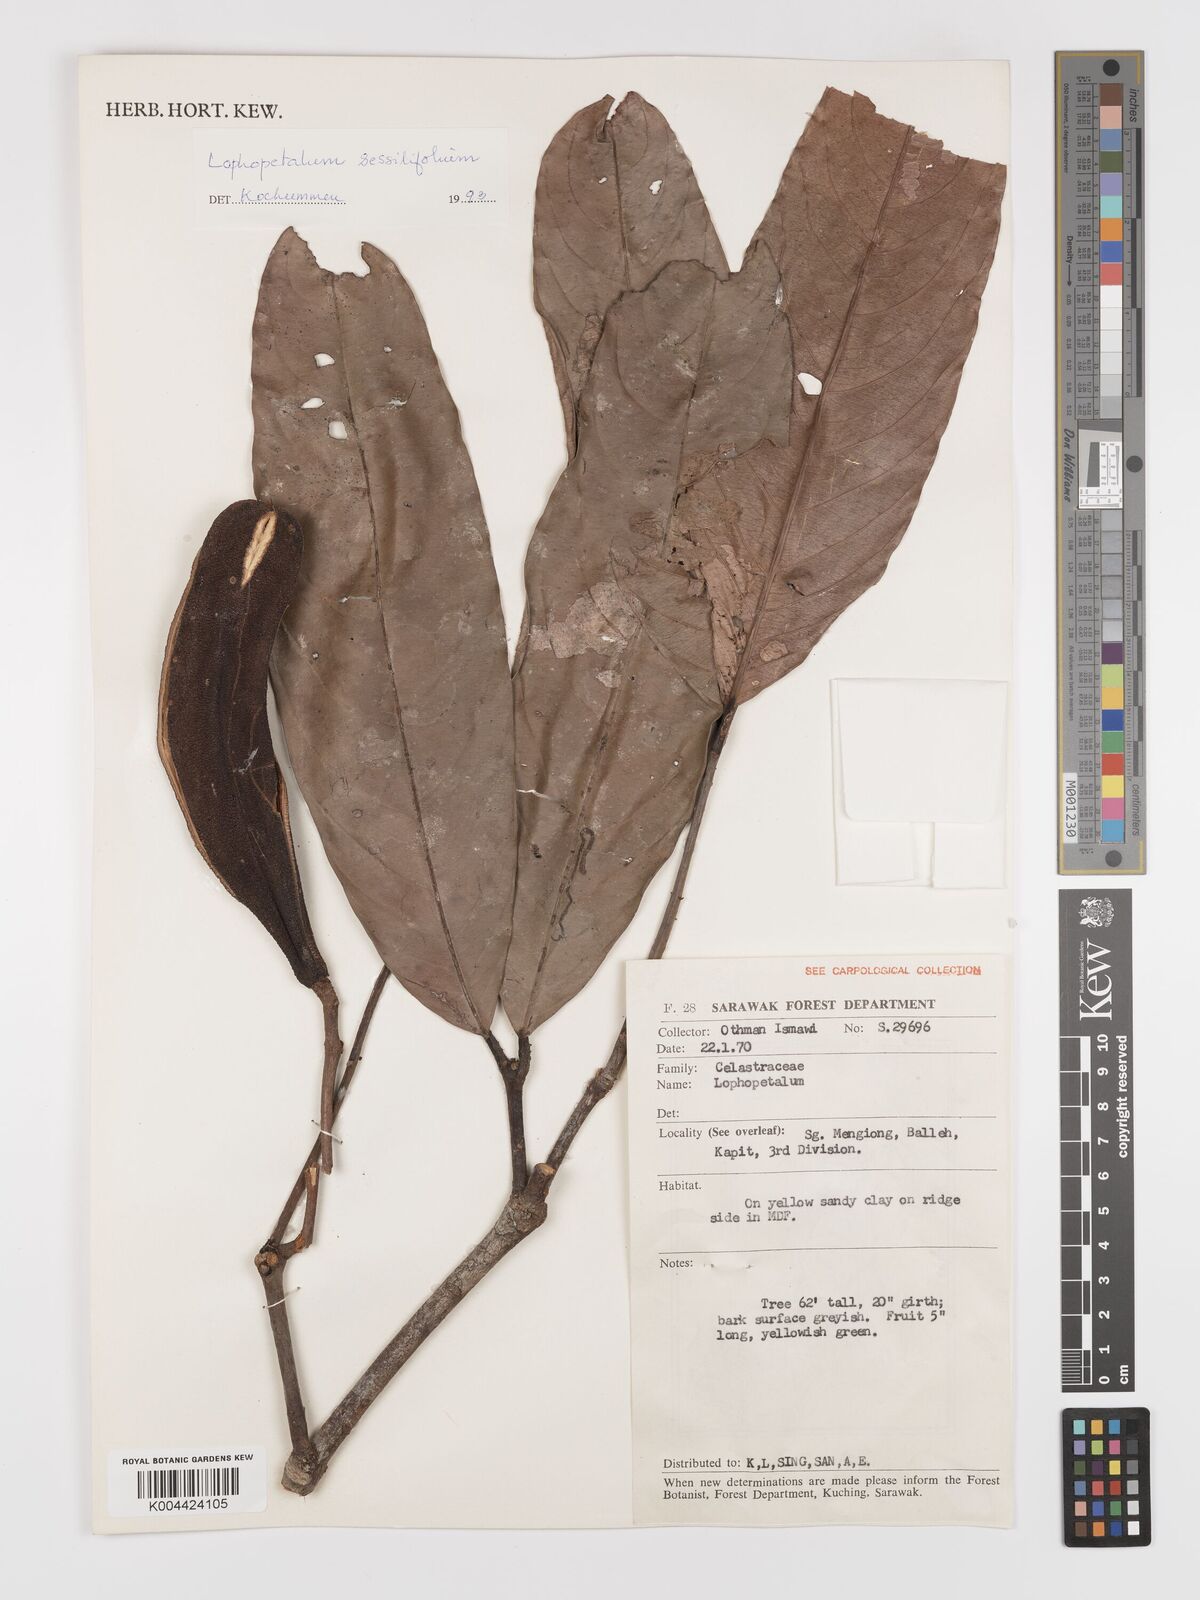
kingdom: Plantae
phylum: Tracheophyta
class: Magnoliopsida
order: Celastrales
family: Celastraceae
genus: Lophopetalum
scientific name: Lophopetalum sessilifolium
